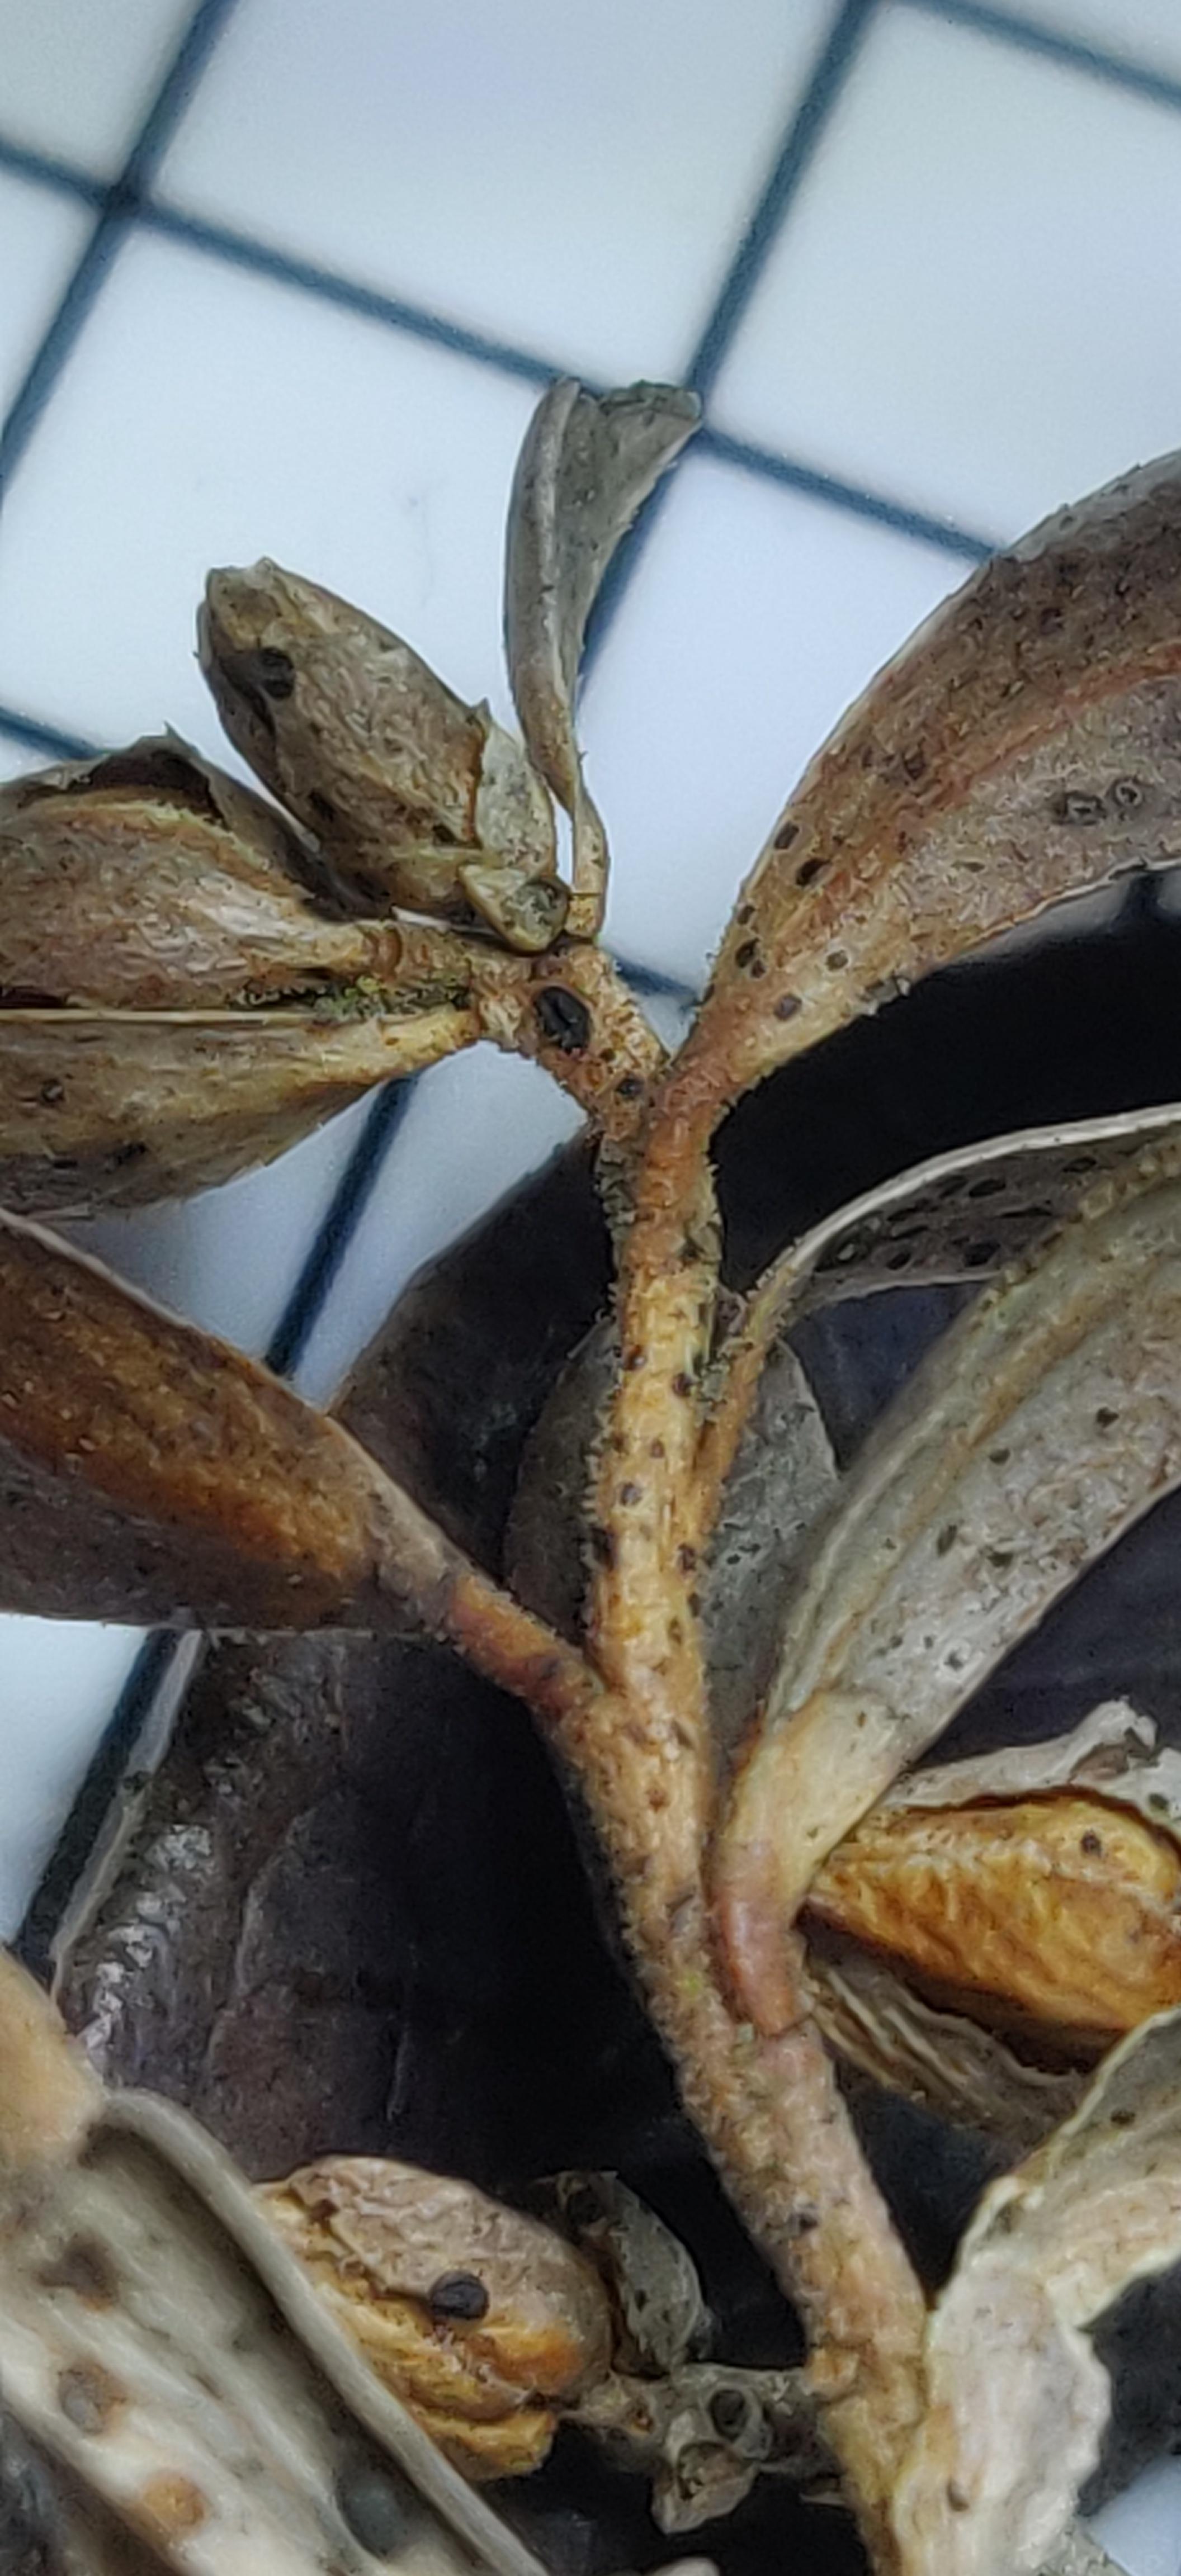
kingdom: Fungi
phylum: Ascomycota
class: Leotiomycetes
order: Rhytismatales
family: Rhytismataceae
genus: Lophodermium
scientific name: Lophodermium melaleucum
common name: tyttebær-fureplet
